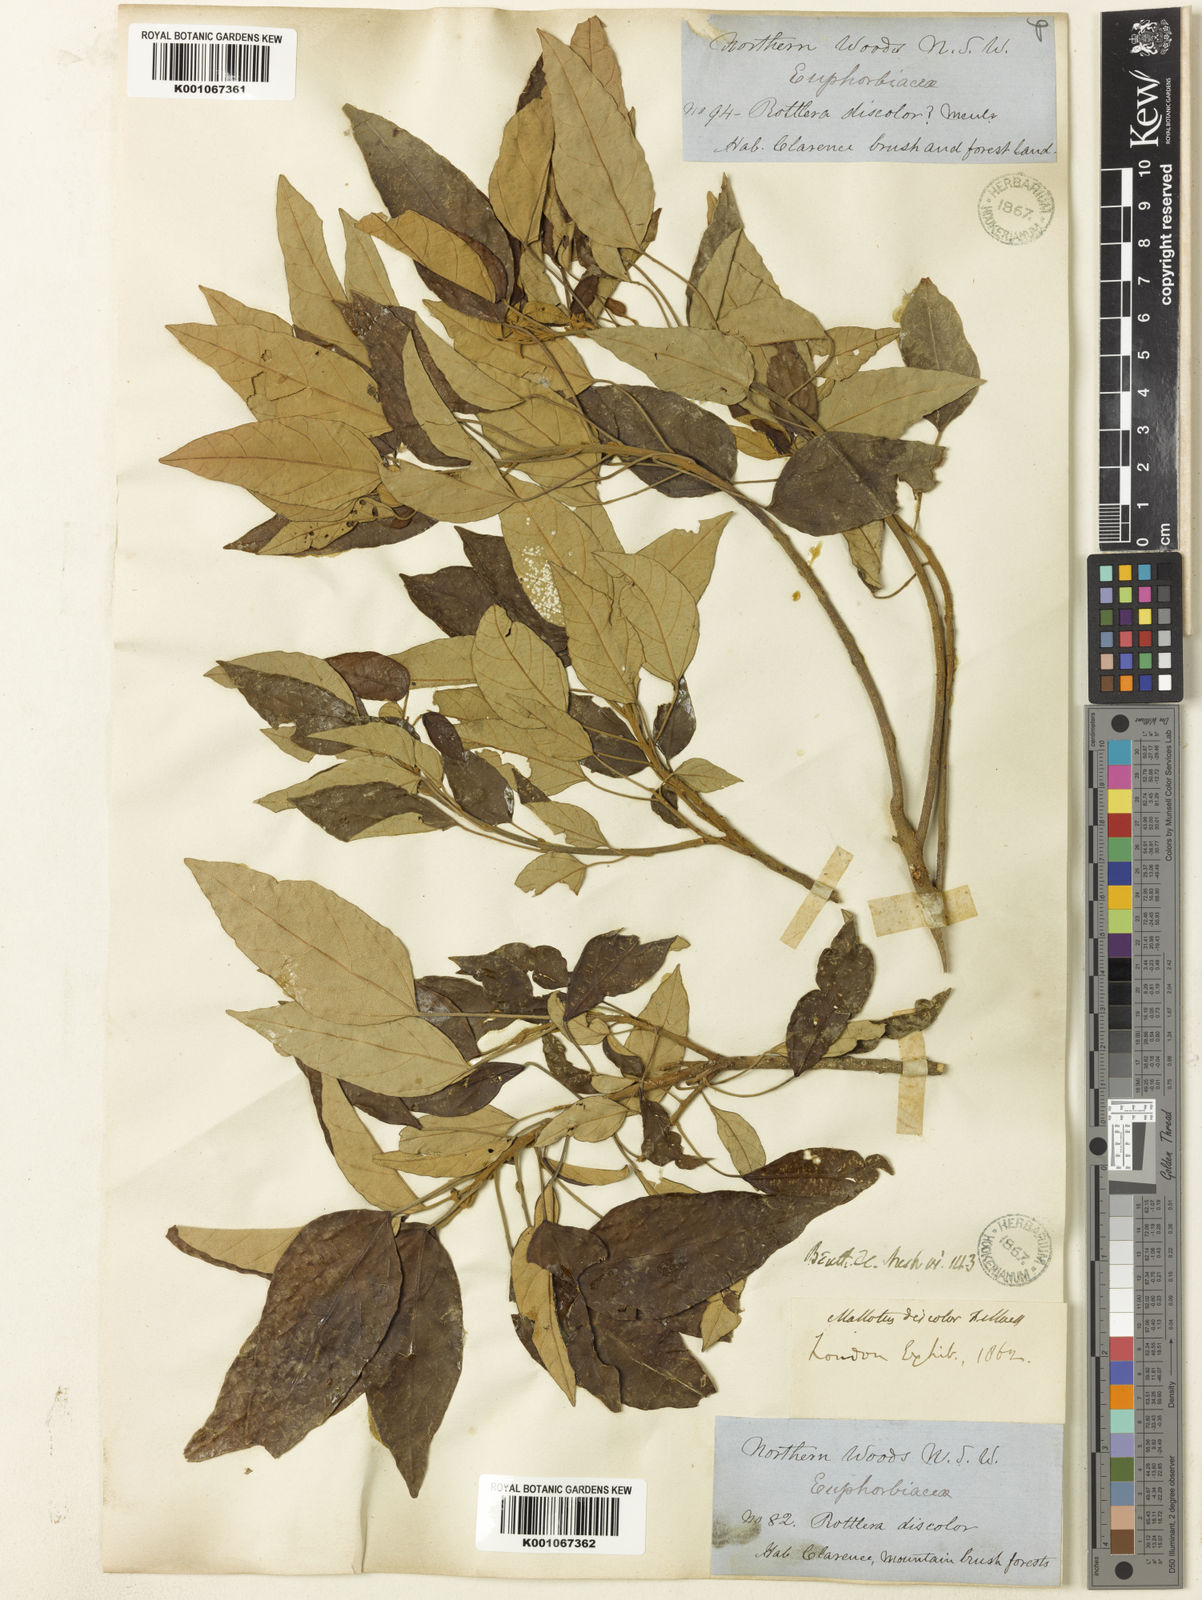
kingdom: Plantae
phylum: Tracheophyta
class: Magnoliopsida
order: Malpighiales
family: Euphorbiaceae
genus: Mallotus
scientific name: Mallotus discolor
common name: White kamala
